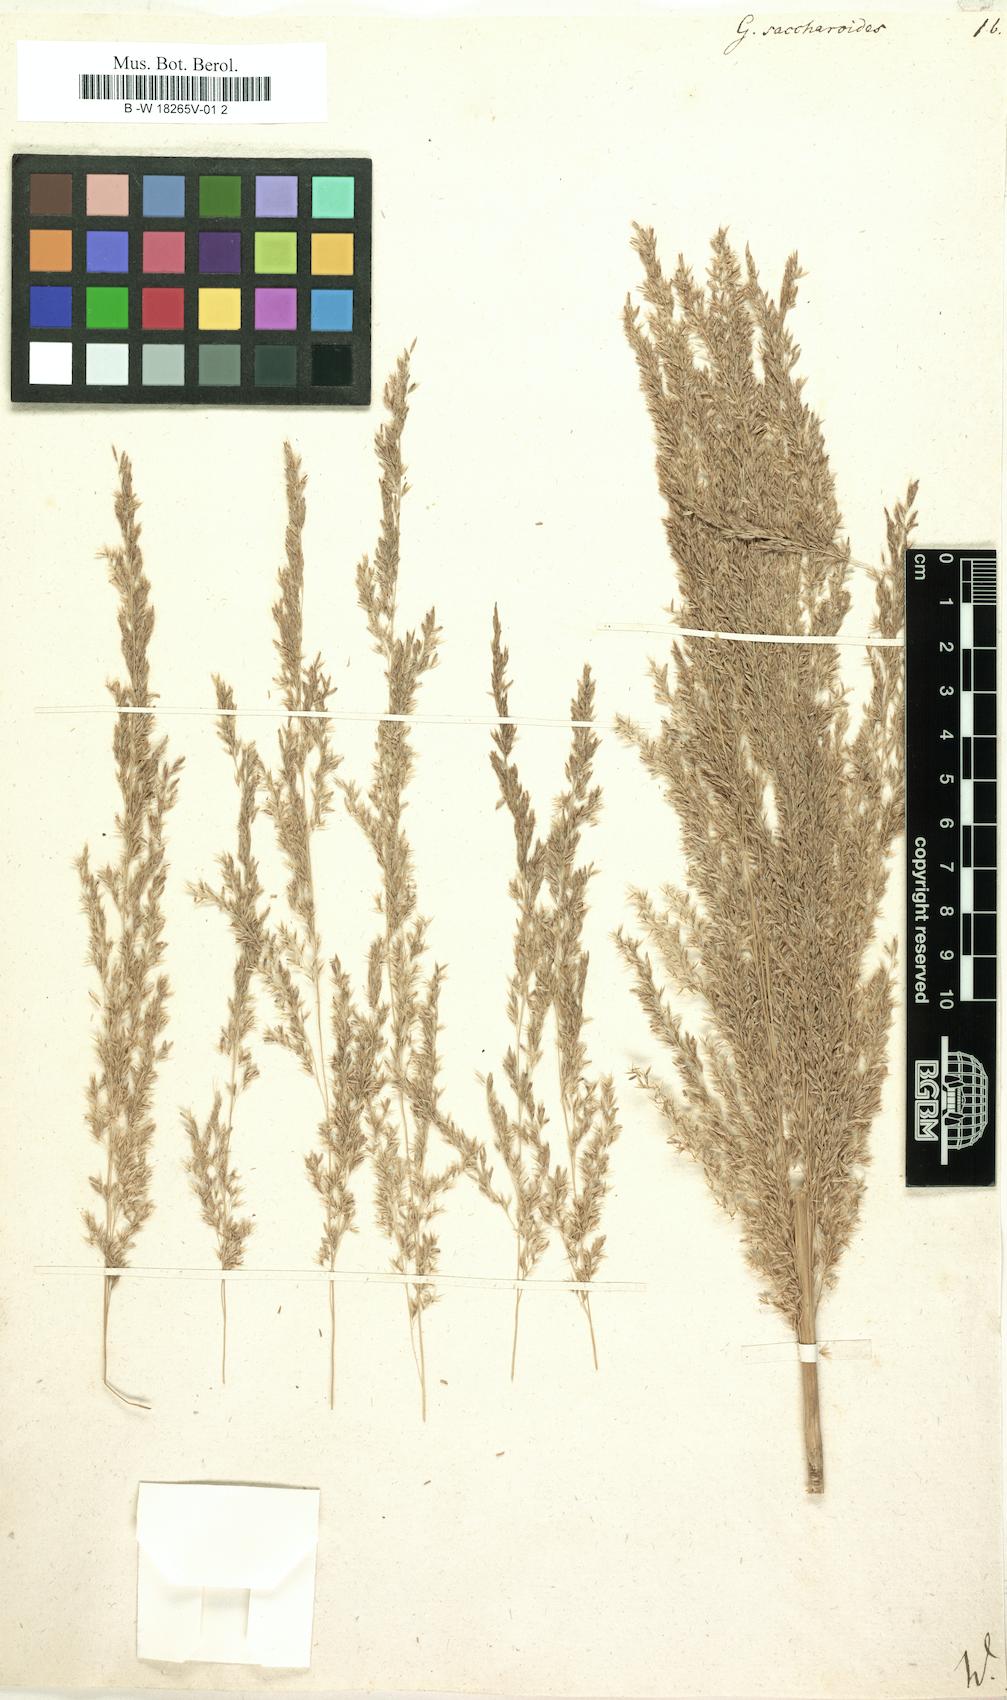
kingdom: Plantae
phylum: Tracheophyta
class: Liliopsida
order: Poales
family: Poaceae
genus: Gynerium
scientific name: Gynerium sagittatum
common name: Wild cane
